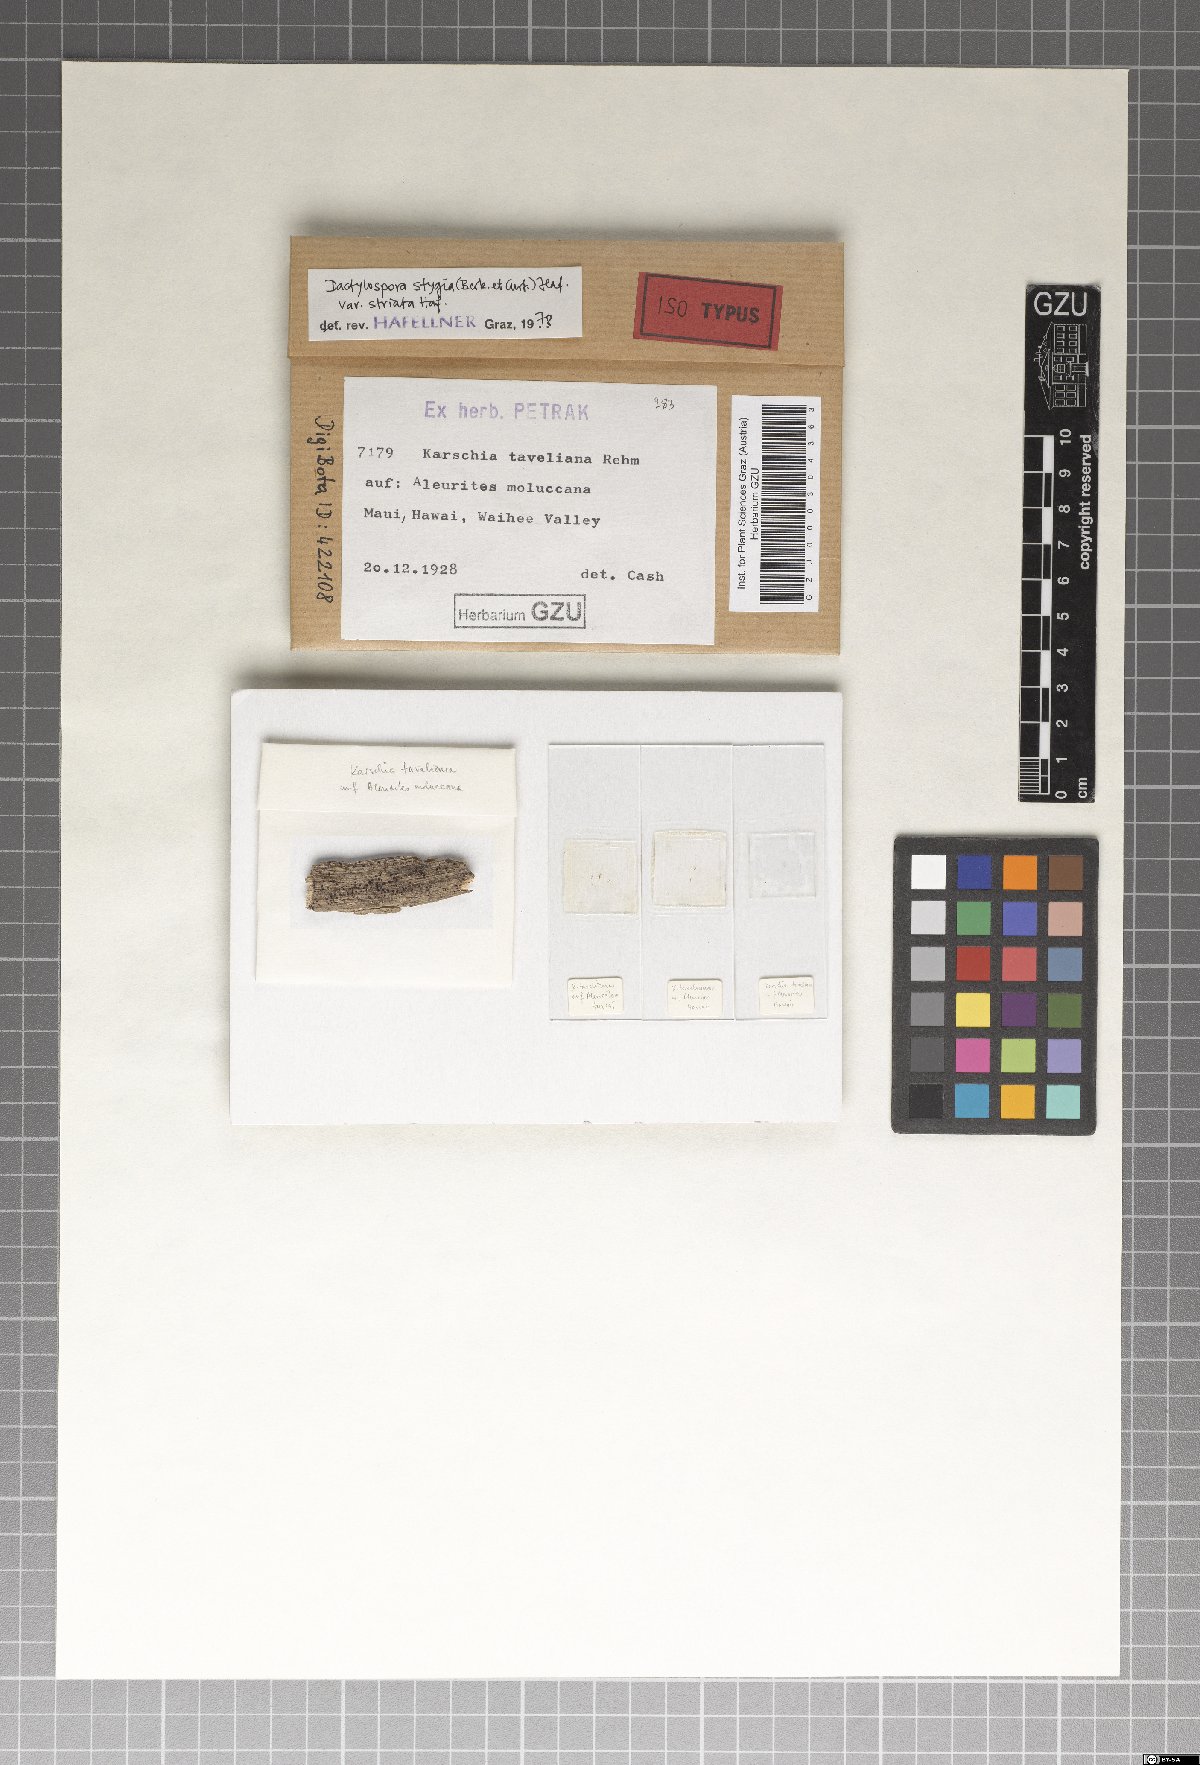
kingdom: Fungi
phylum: Ascomycota
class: Eurotiomycetes
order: Sclerococcales
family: Sclerococcaceae
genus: Sclerococcum
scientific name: Sclerococcum stygium
